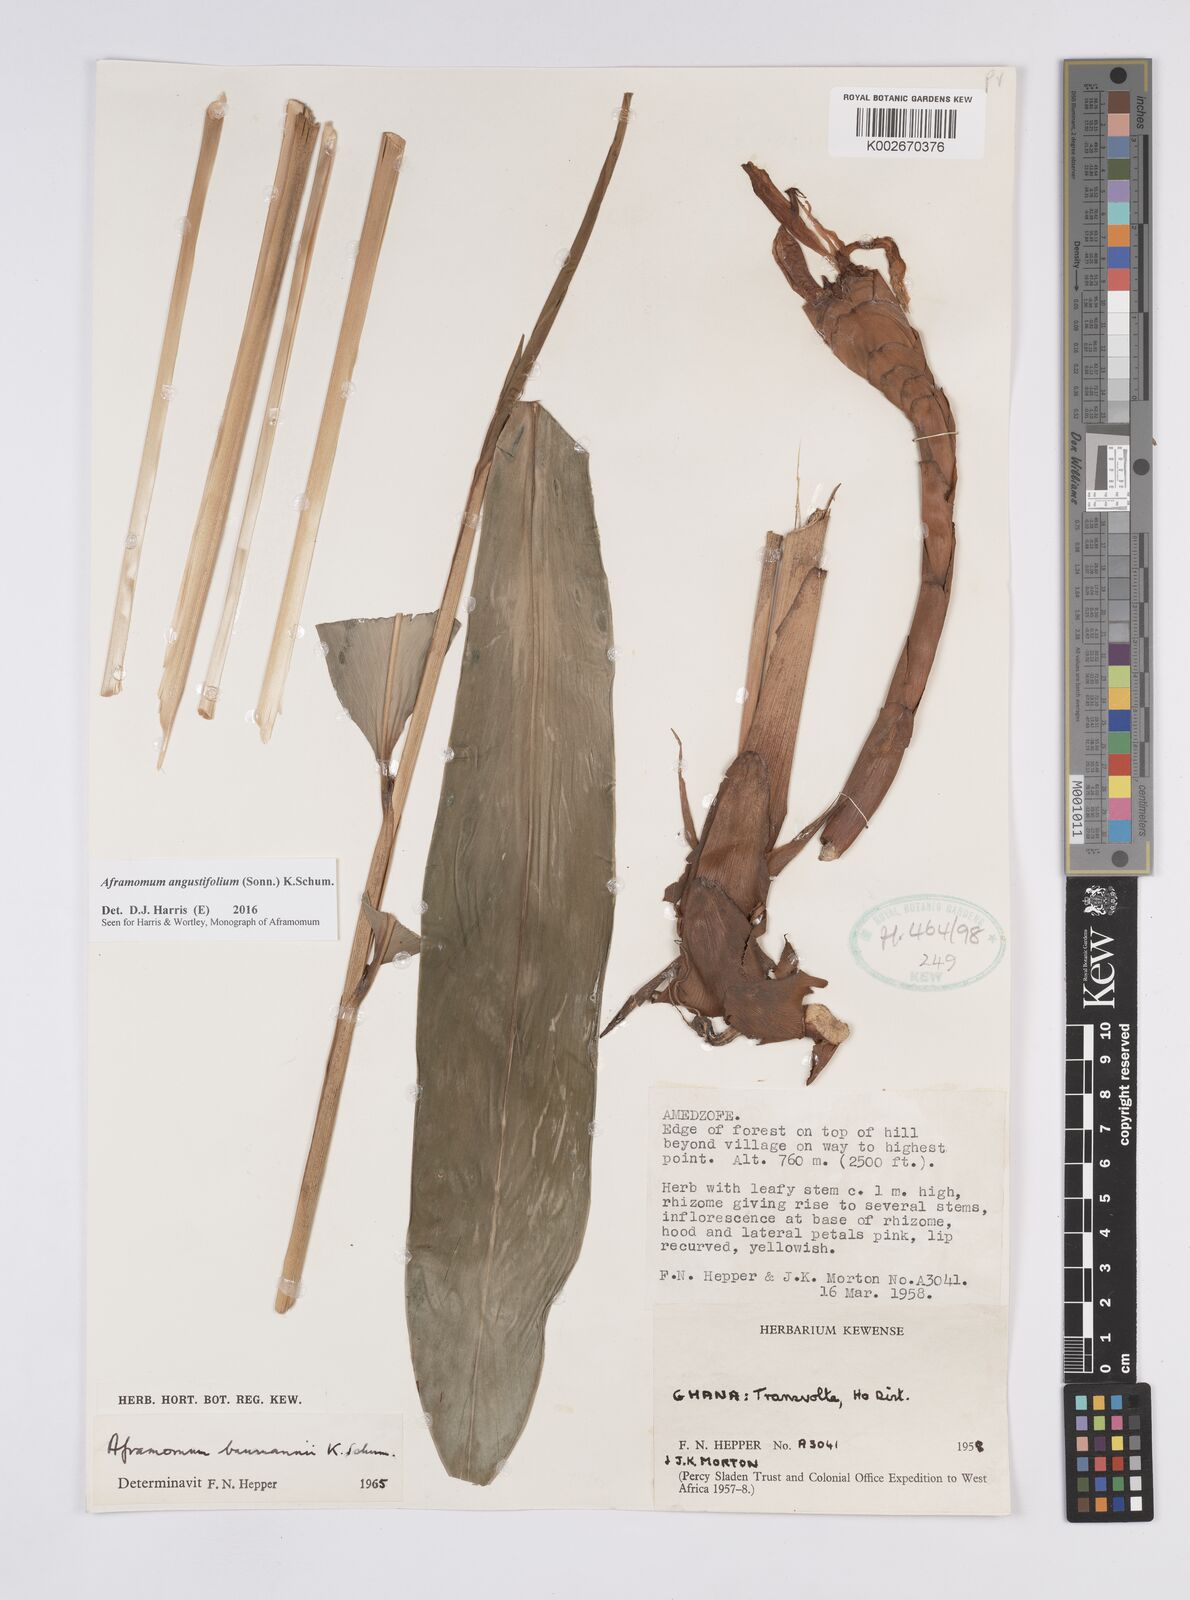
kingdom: Plantae
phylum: Tracheophyta
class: Liliopsida
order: Zingiberales
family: Zingiberaceae
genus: Aframomum
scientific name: Aframomum angustifolium
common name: Guinea grains
